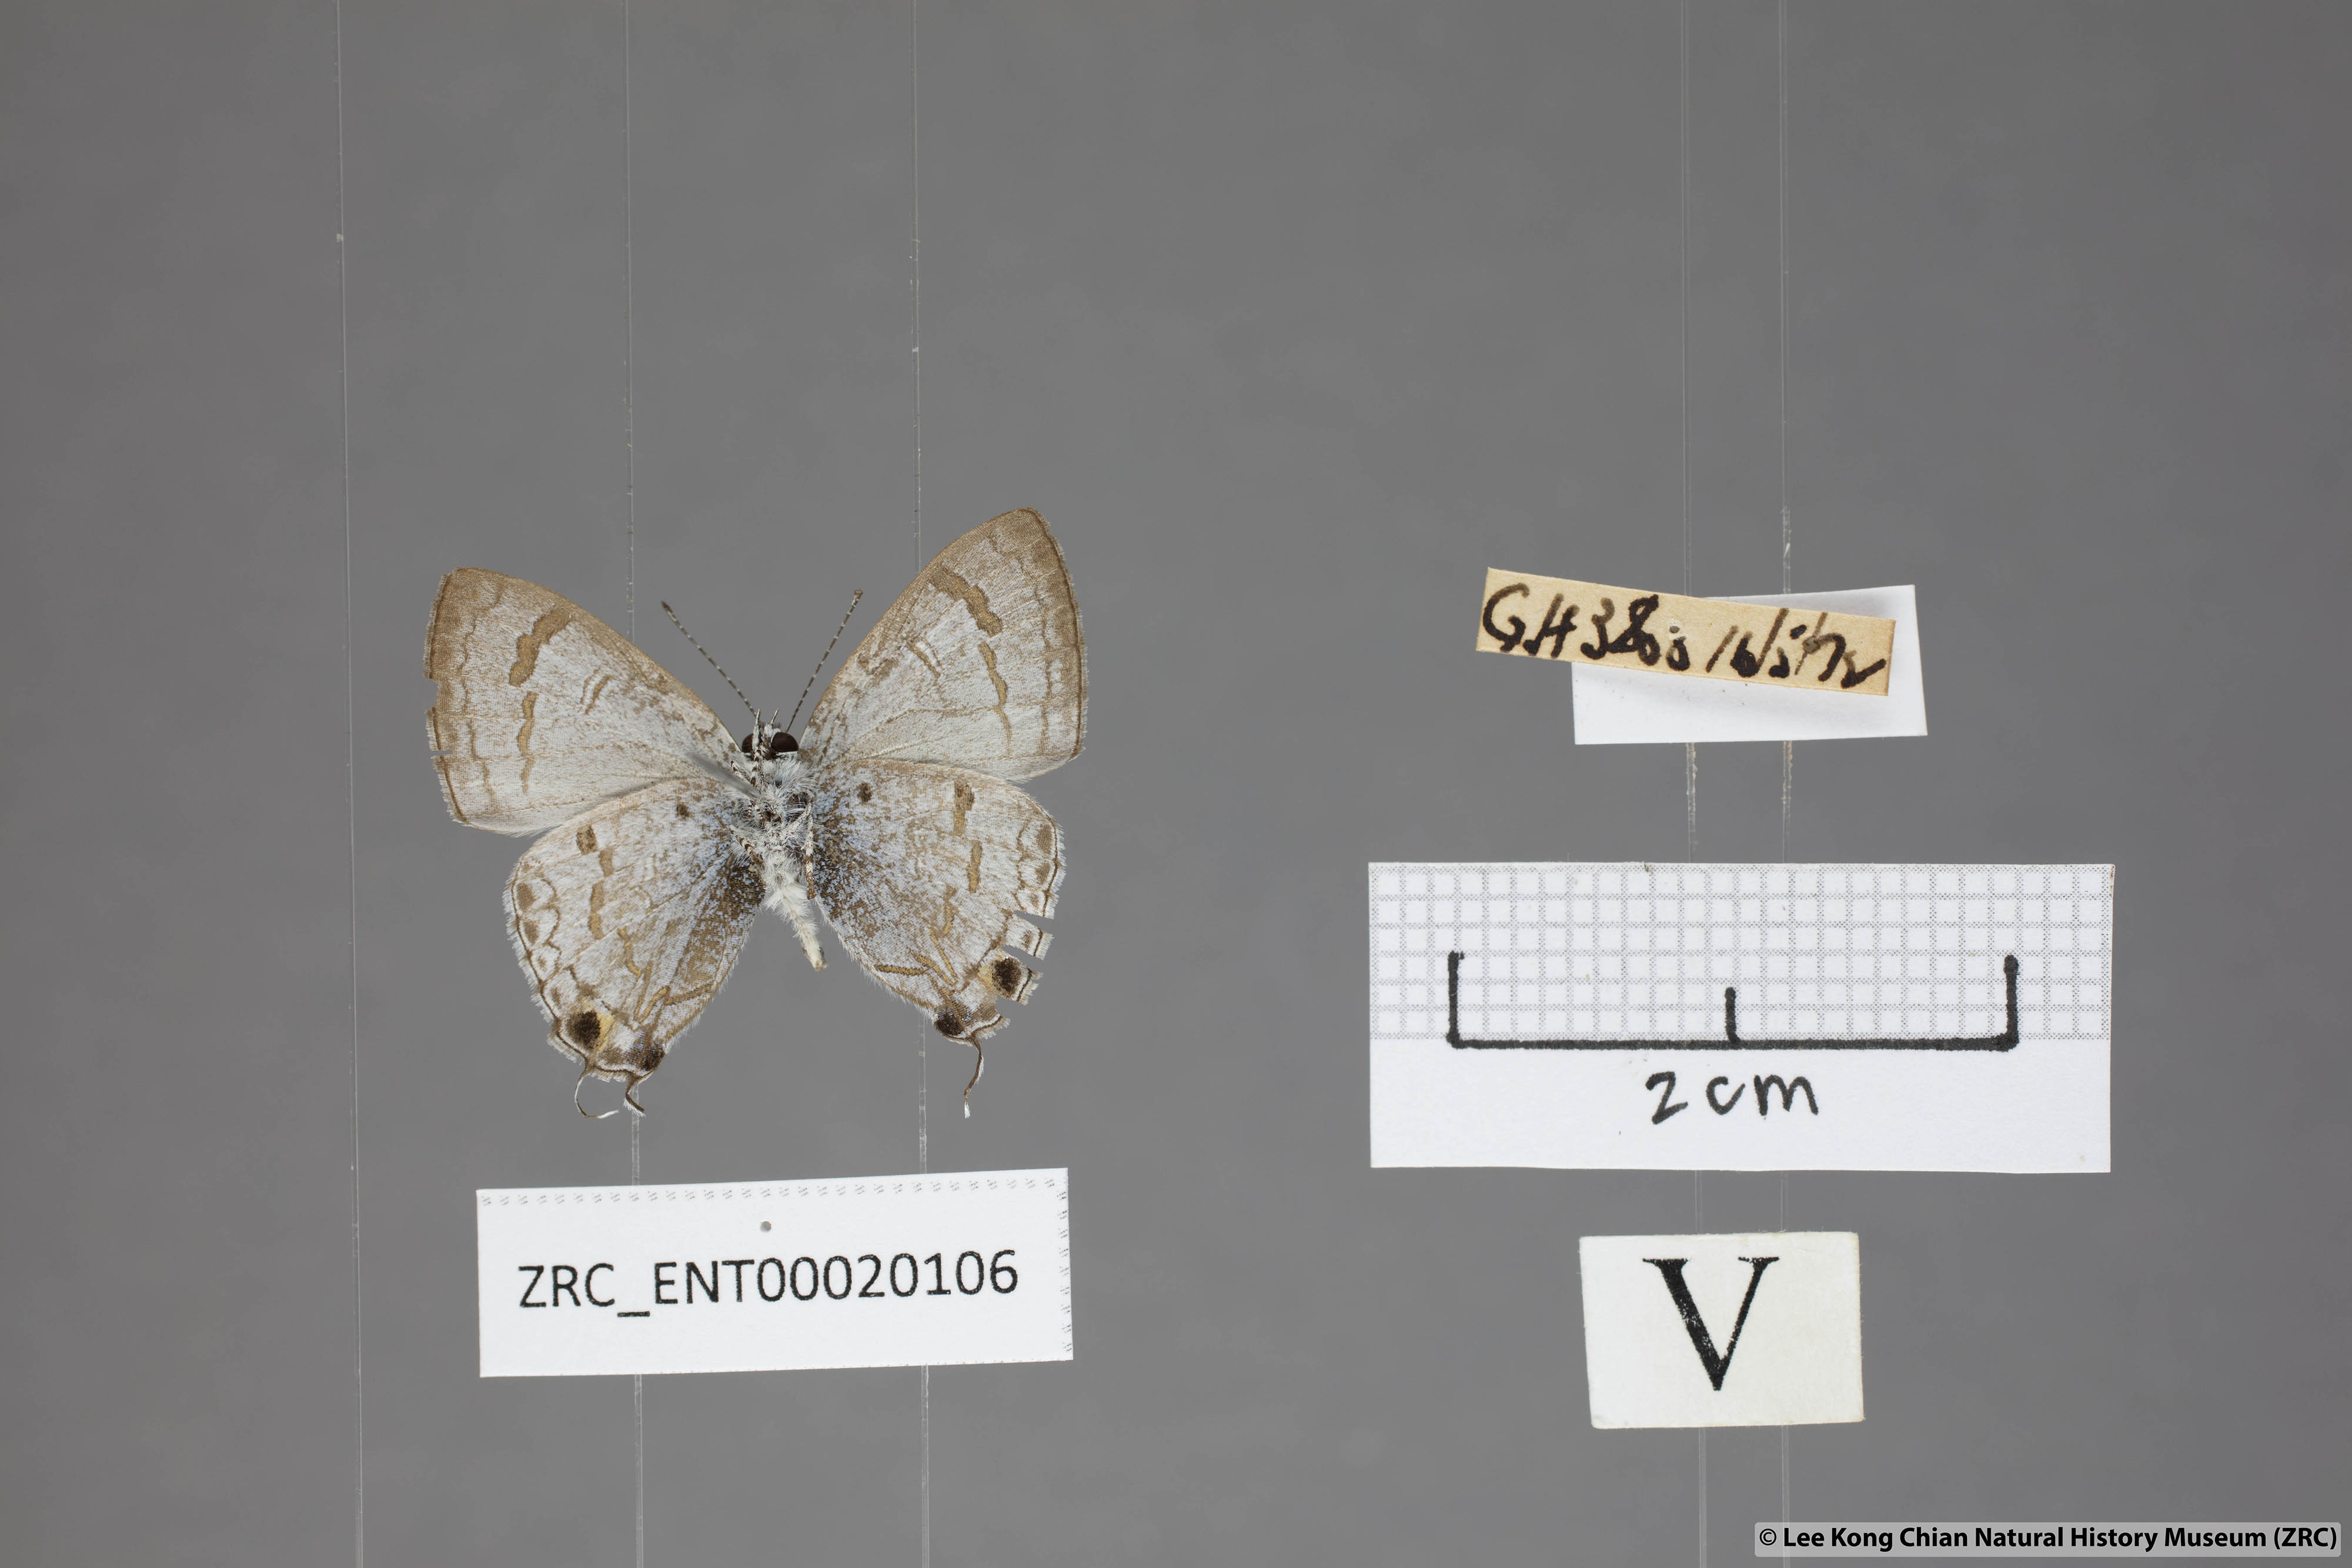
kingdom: Animalia
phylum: Arthropoda
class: Insecta
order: Lepidoptera
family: Lycaenidae
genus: Chliaria
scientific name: Chliaria pahanga
